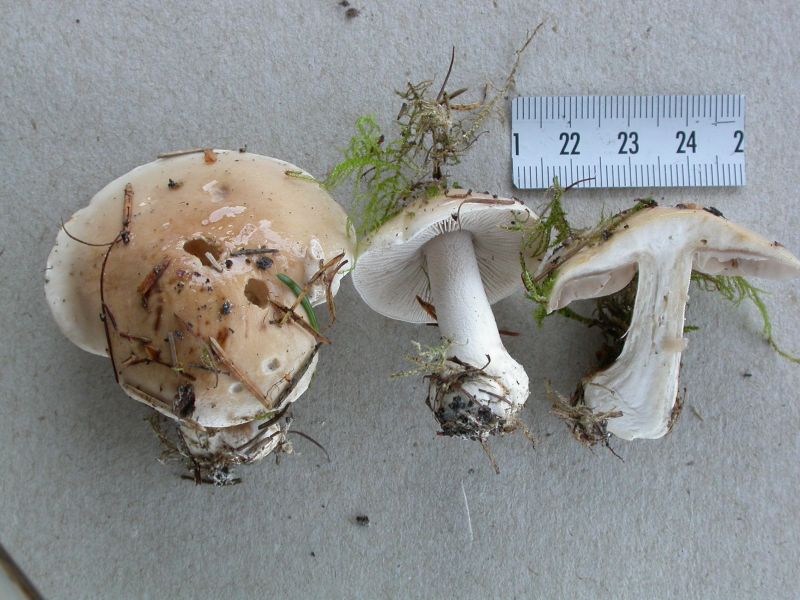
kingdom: Fungi
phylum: Basidiomycota
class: Agaricomycetes
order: Agaricales
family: Hymenogastraceae
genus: Hebeloma
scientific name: Hebeloma crustuliniforme
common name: almindelig tåreblad
